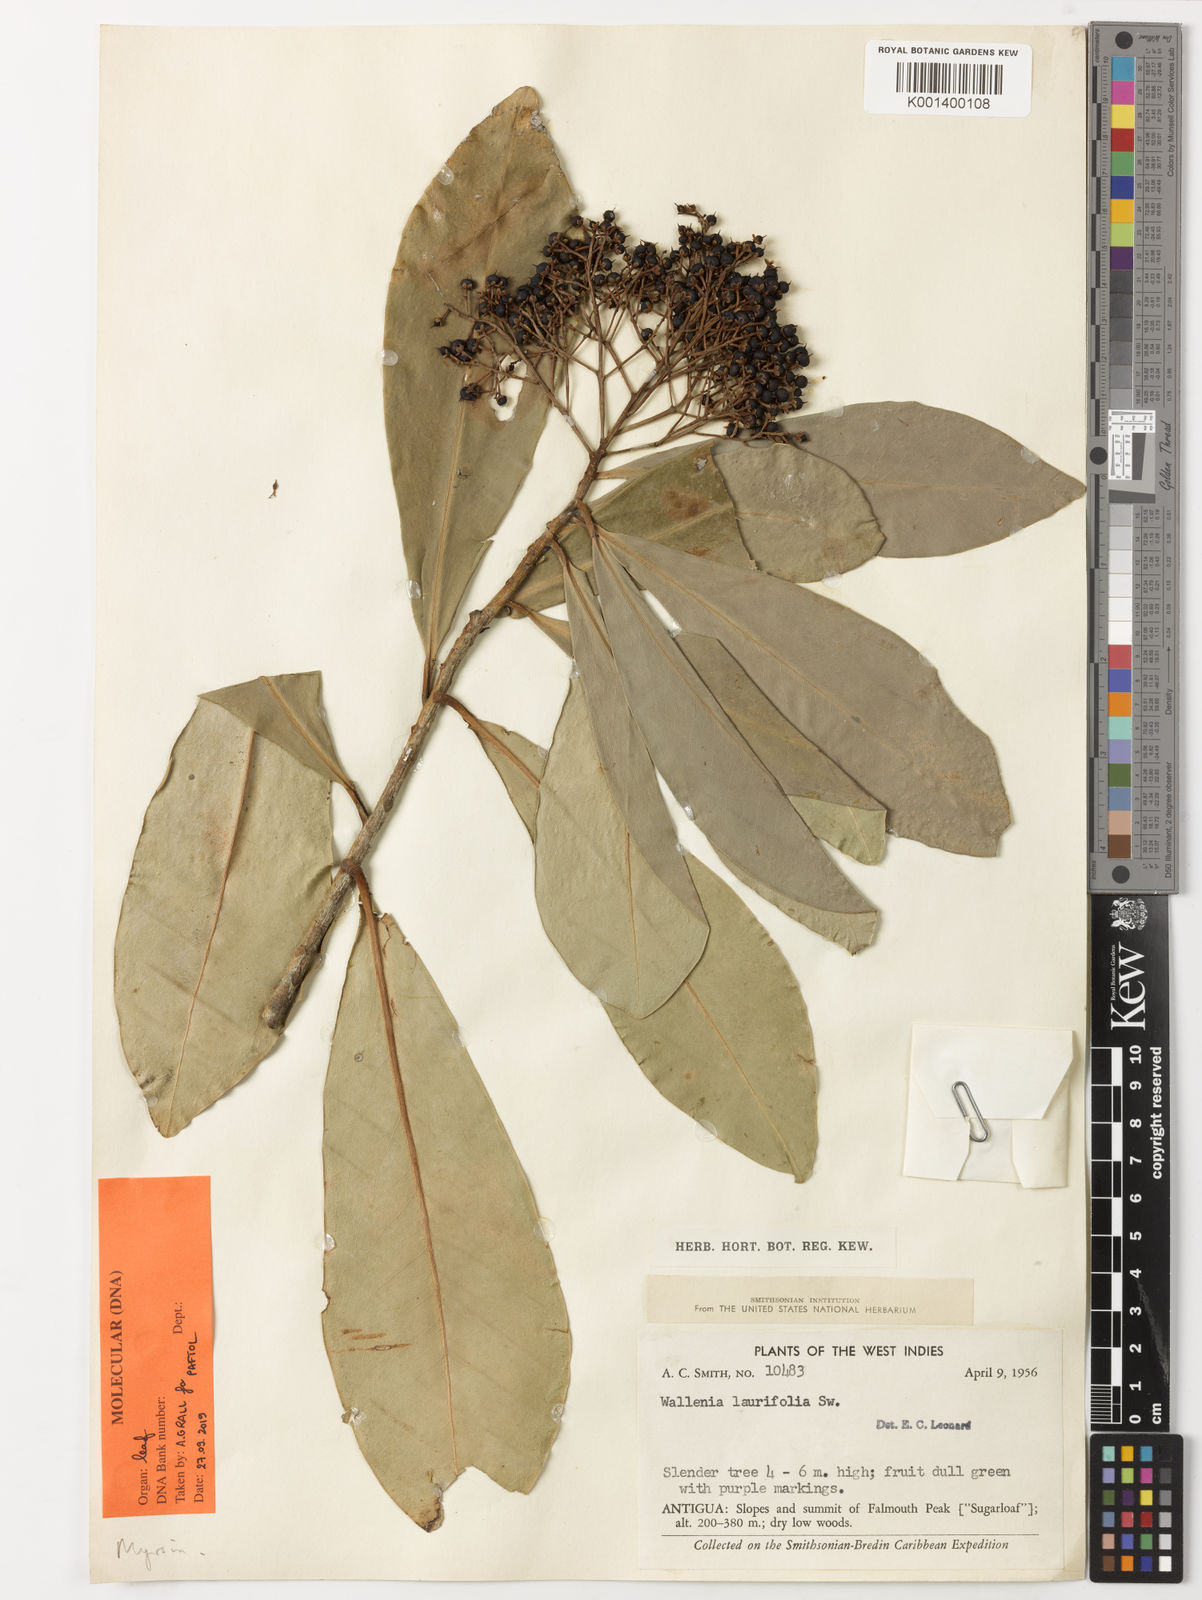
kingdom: Plantae
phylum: Tracheophyta
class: Magnoliopsida
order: Ericales
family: Primulaceae
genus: Wallenia
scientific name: Wallenia laurifolia
